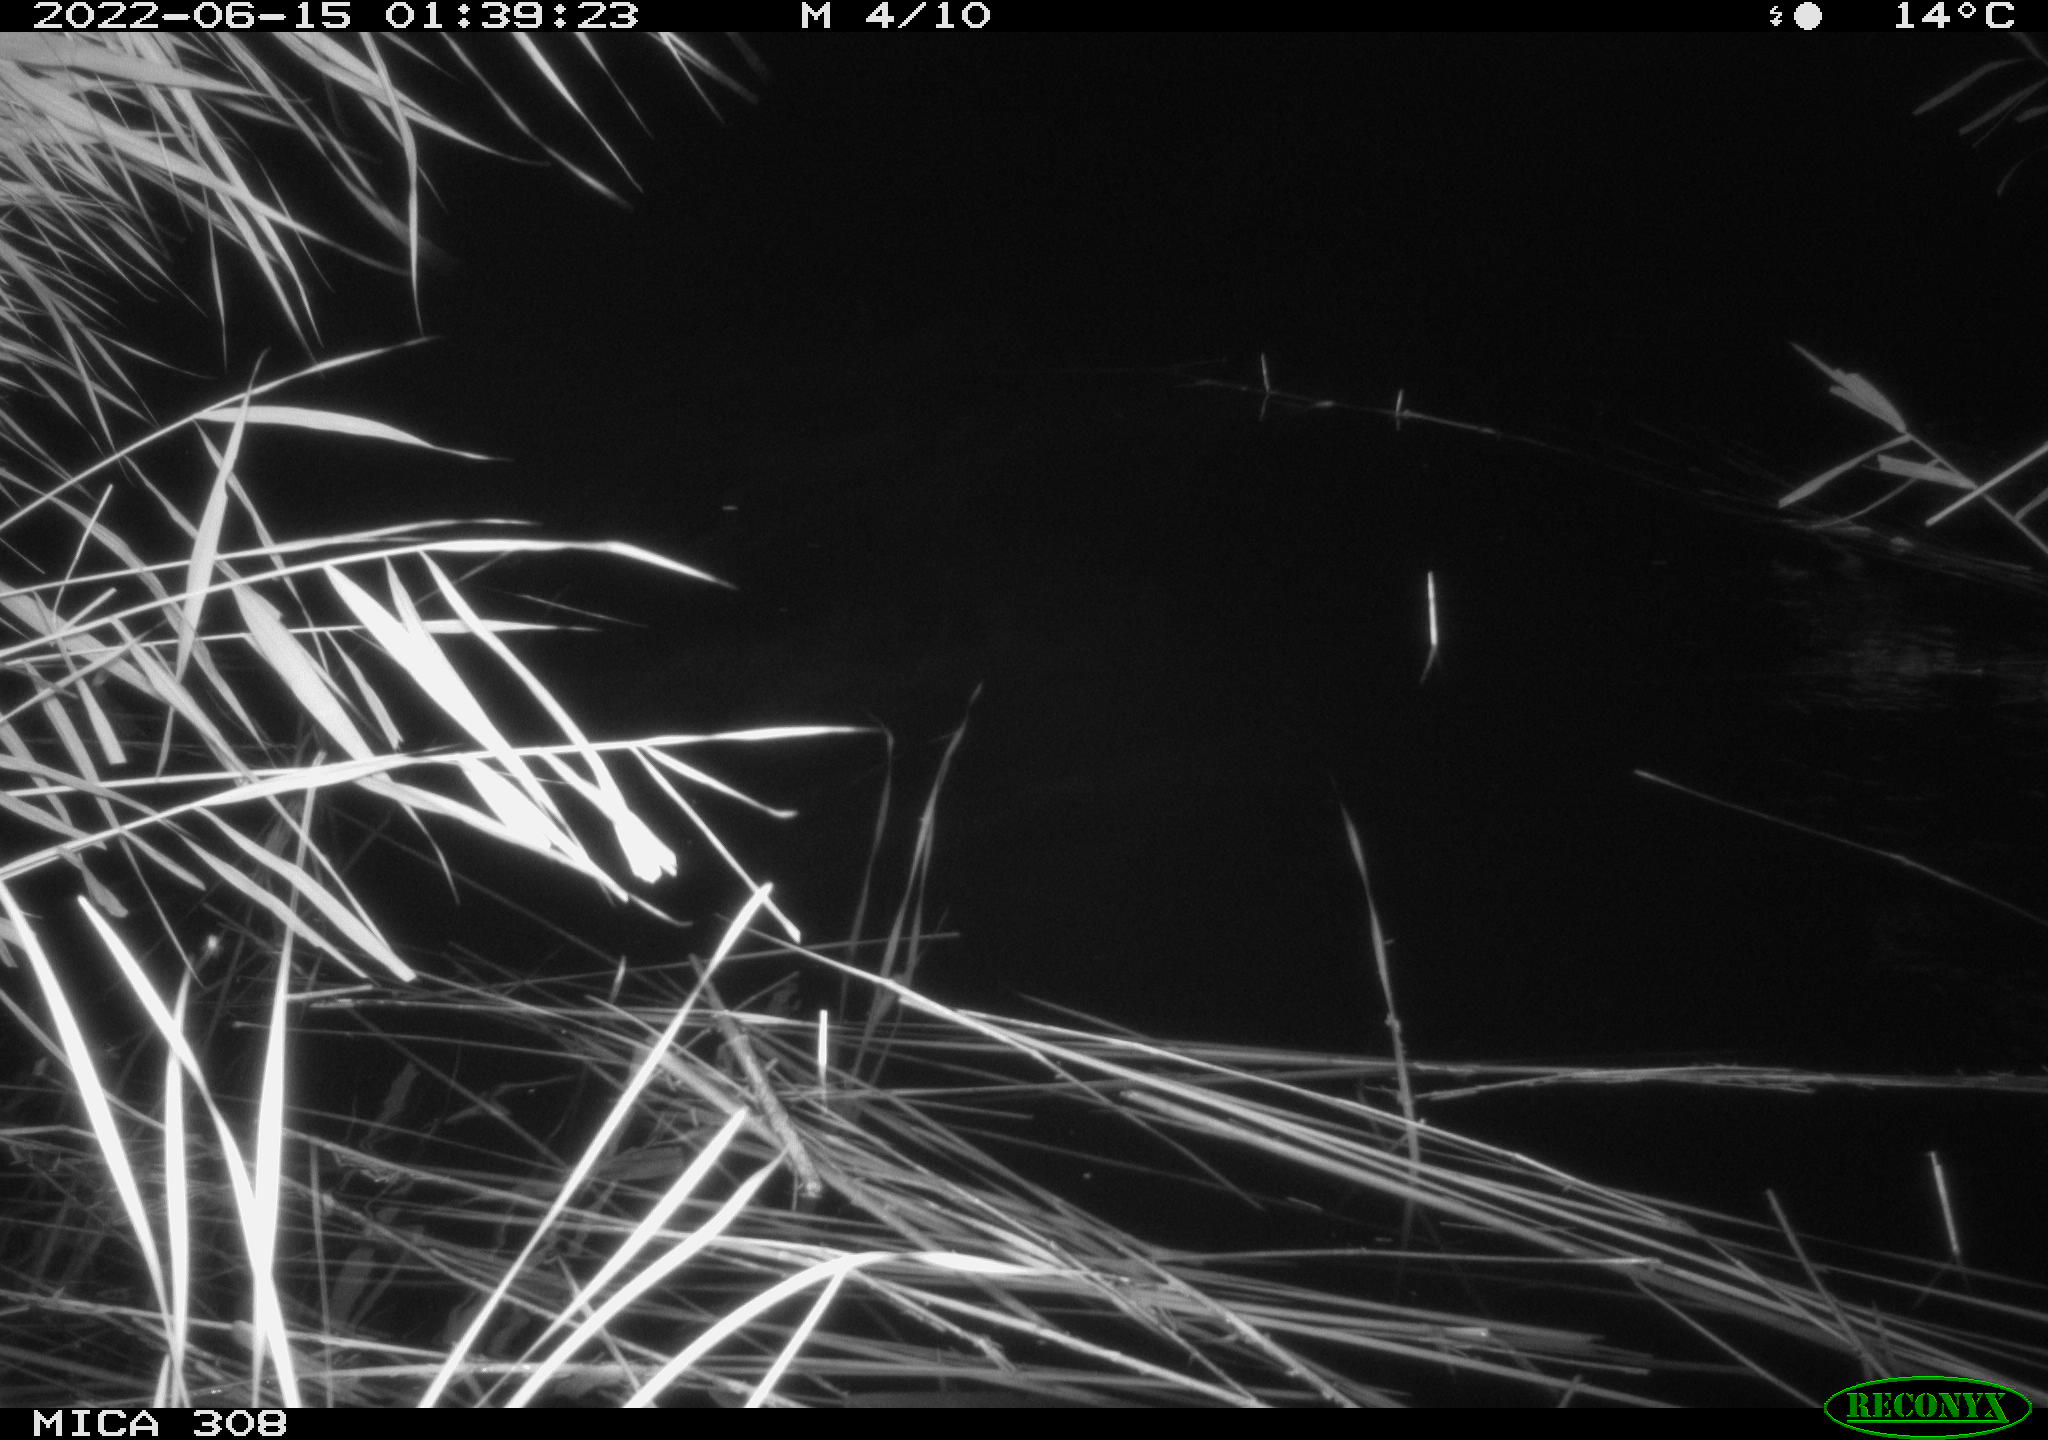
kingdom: Animalia
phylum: Chordata
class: Aves
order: Anseriformes
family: Anatidae
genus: Anas
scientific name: Anas platyrhynchos
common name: Mallard
